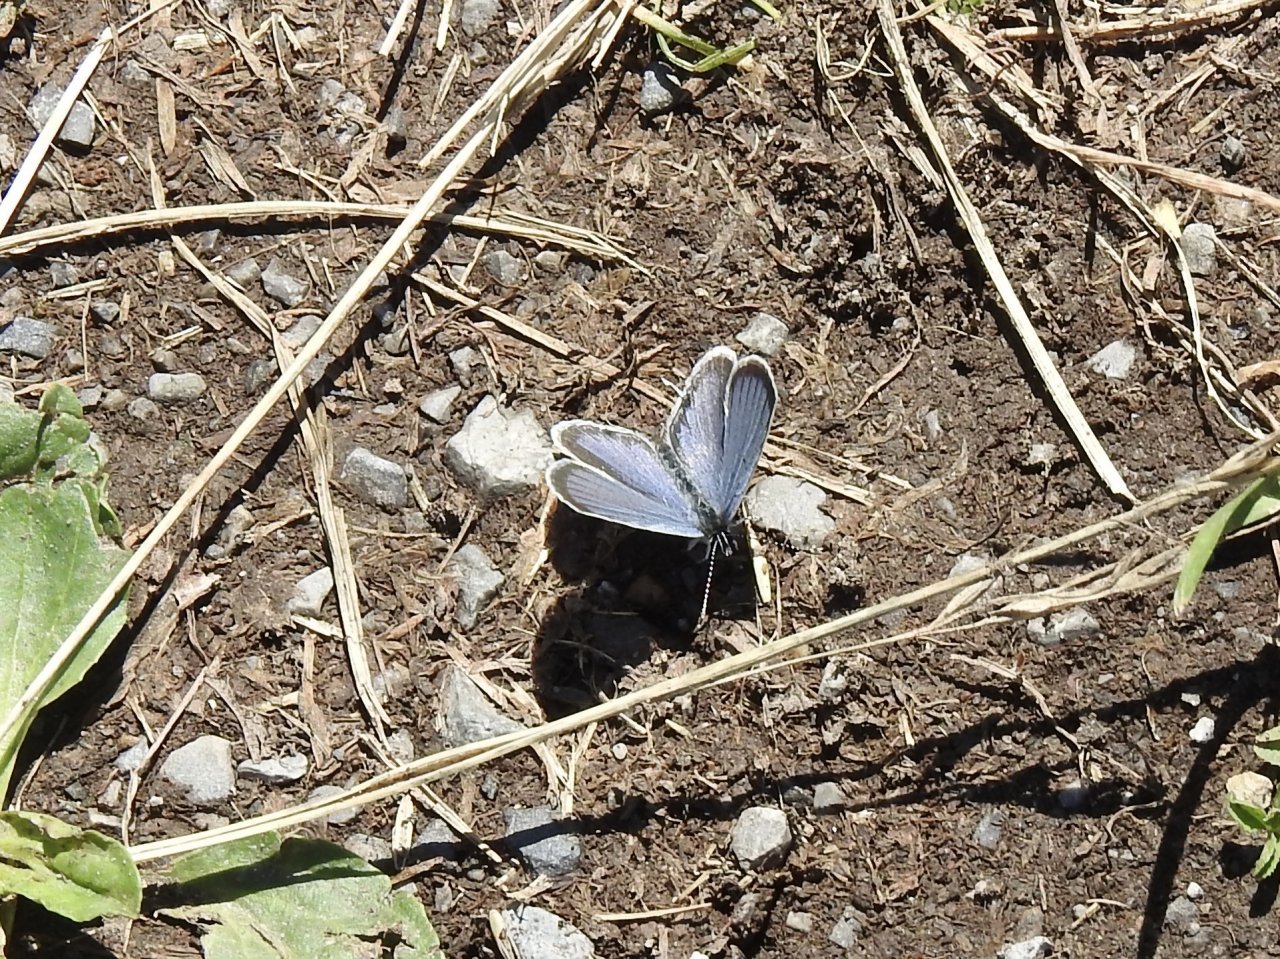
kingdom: Animalia
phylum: Arthropoda
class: Insecta
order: Lepidoptera
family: Lycaenidae
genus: Elkalyce
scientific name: Elkalyce comyntas
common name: Eastern Tailed-Blue
